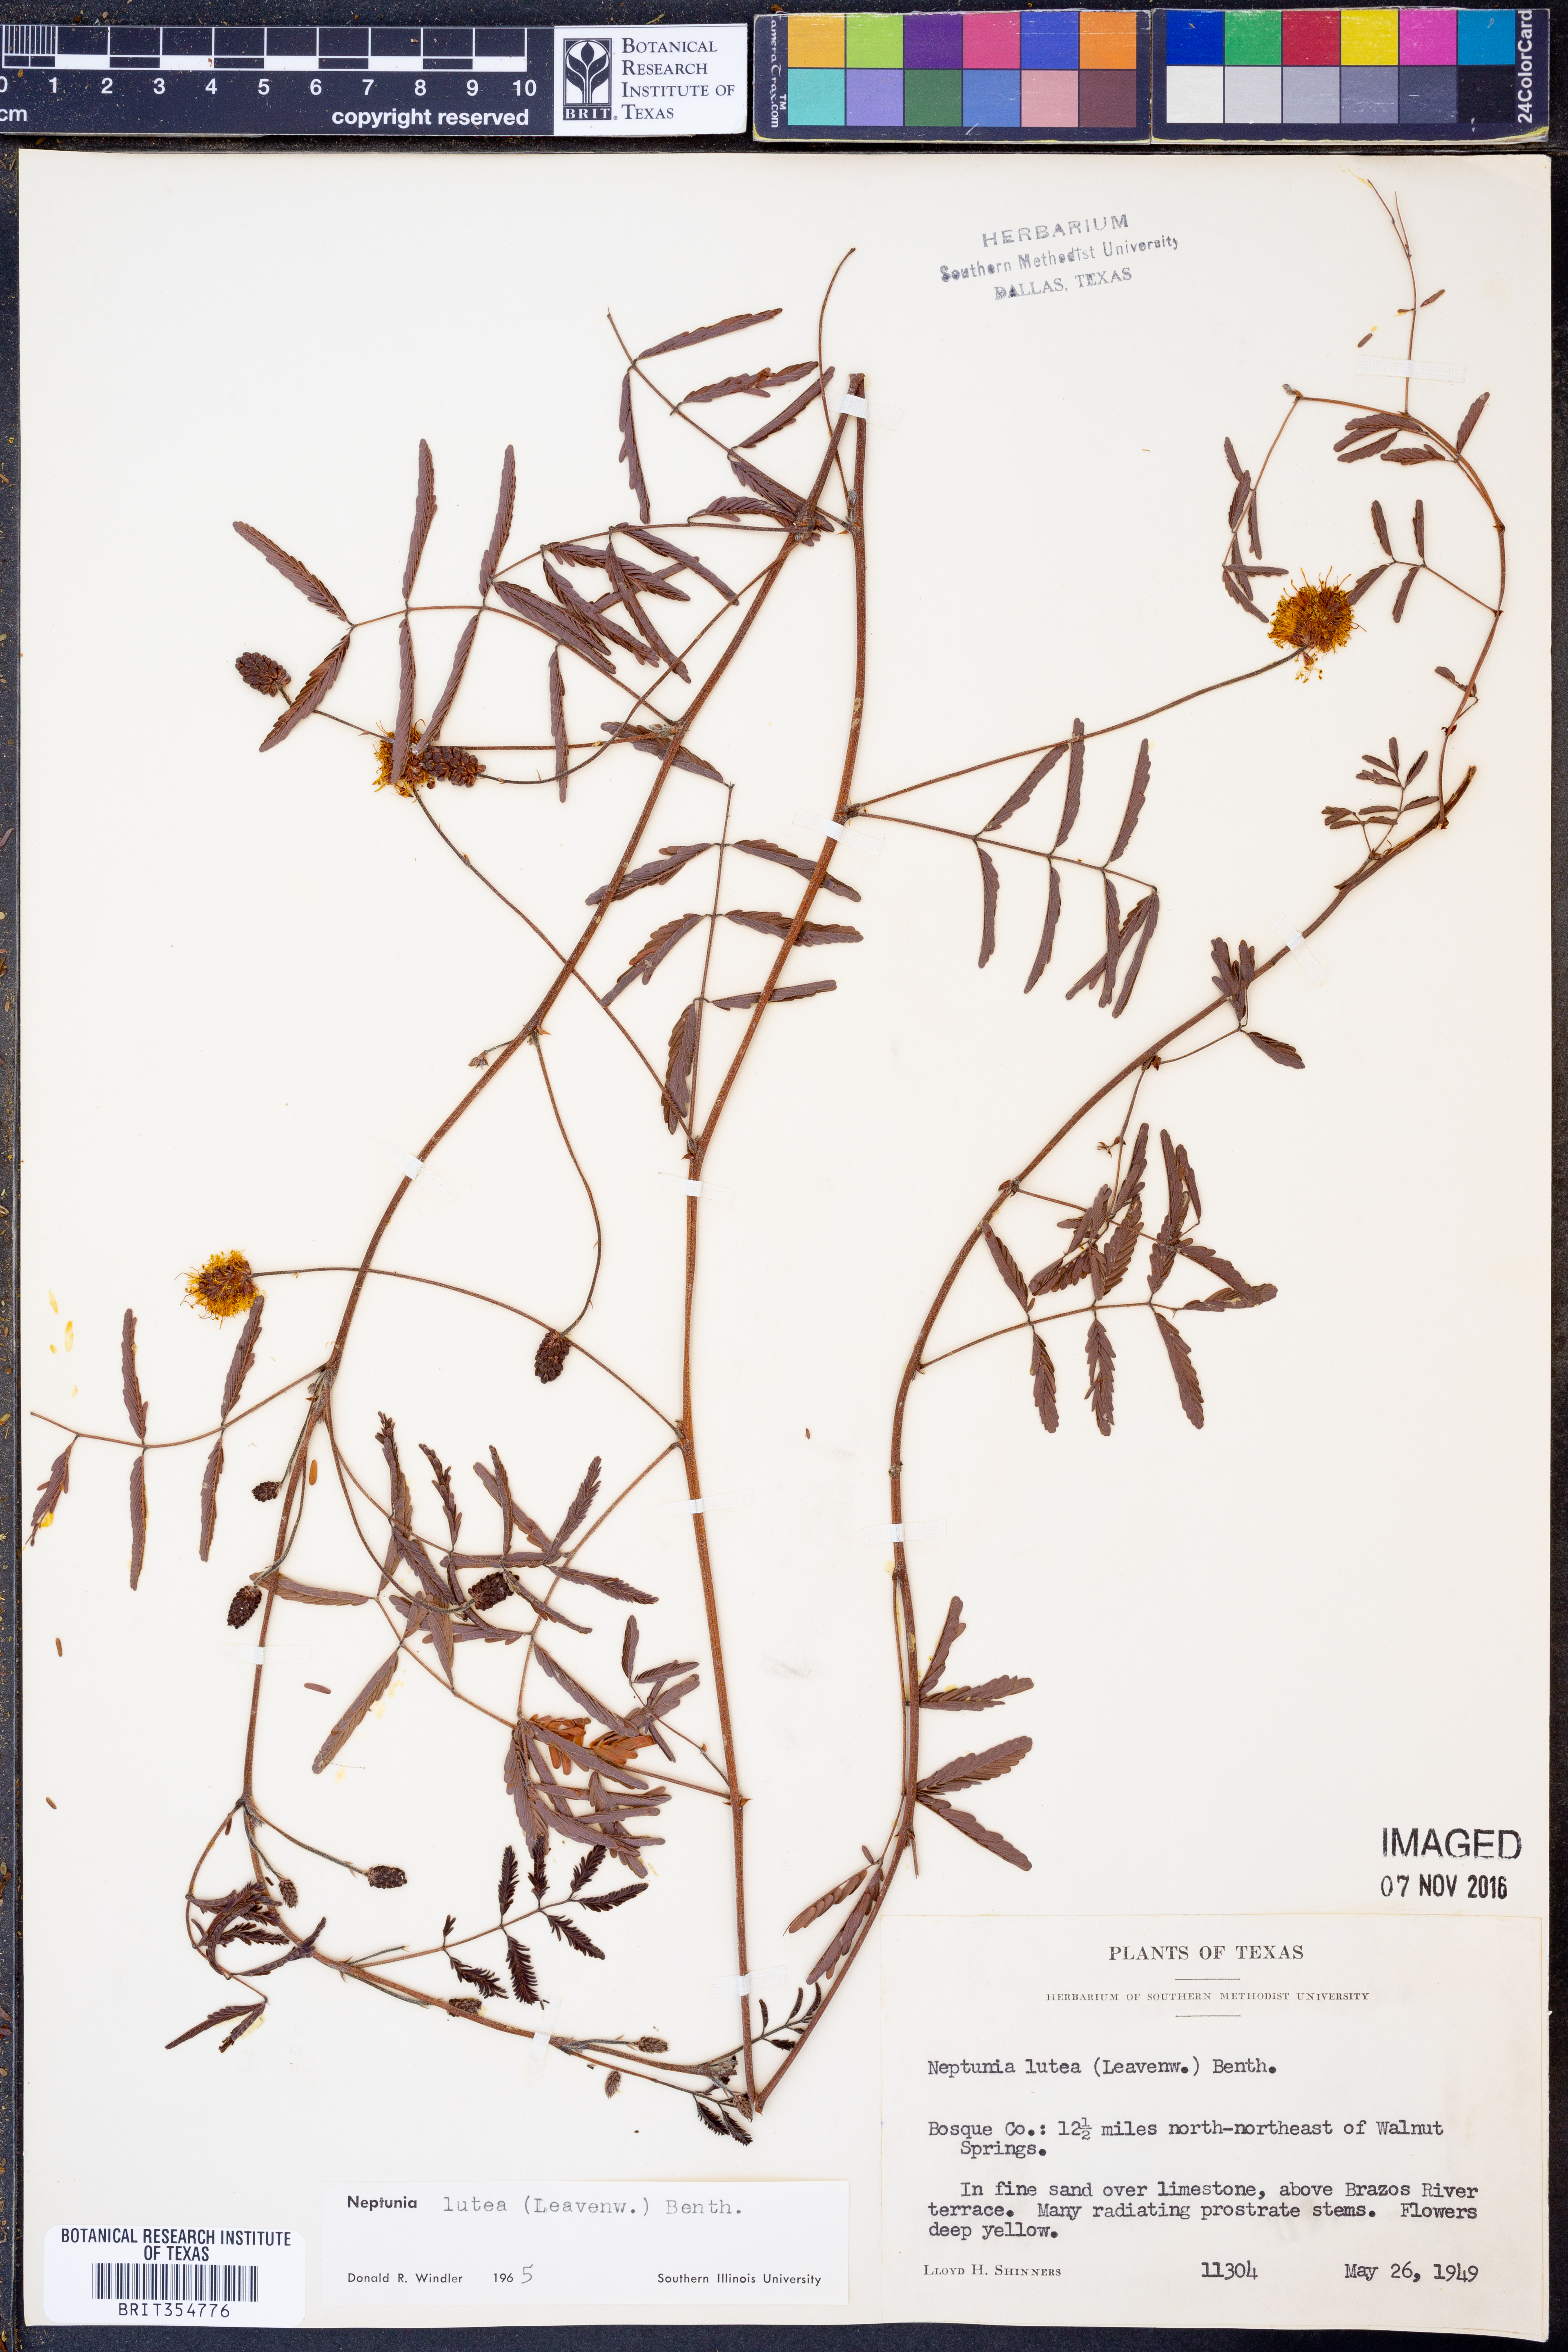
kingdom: Plantae
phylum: Tracheophyta
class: Magnoliopsida
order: Fabales
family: Fabaceae
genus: Neptunia
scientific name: Neptunia lutea
